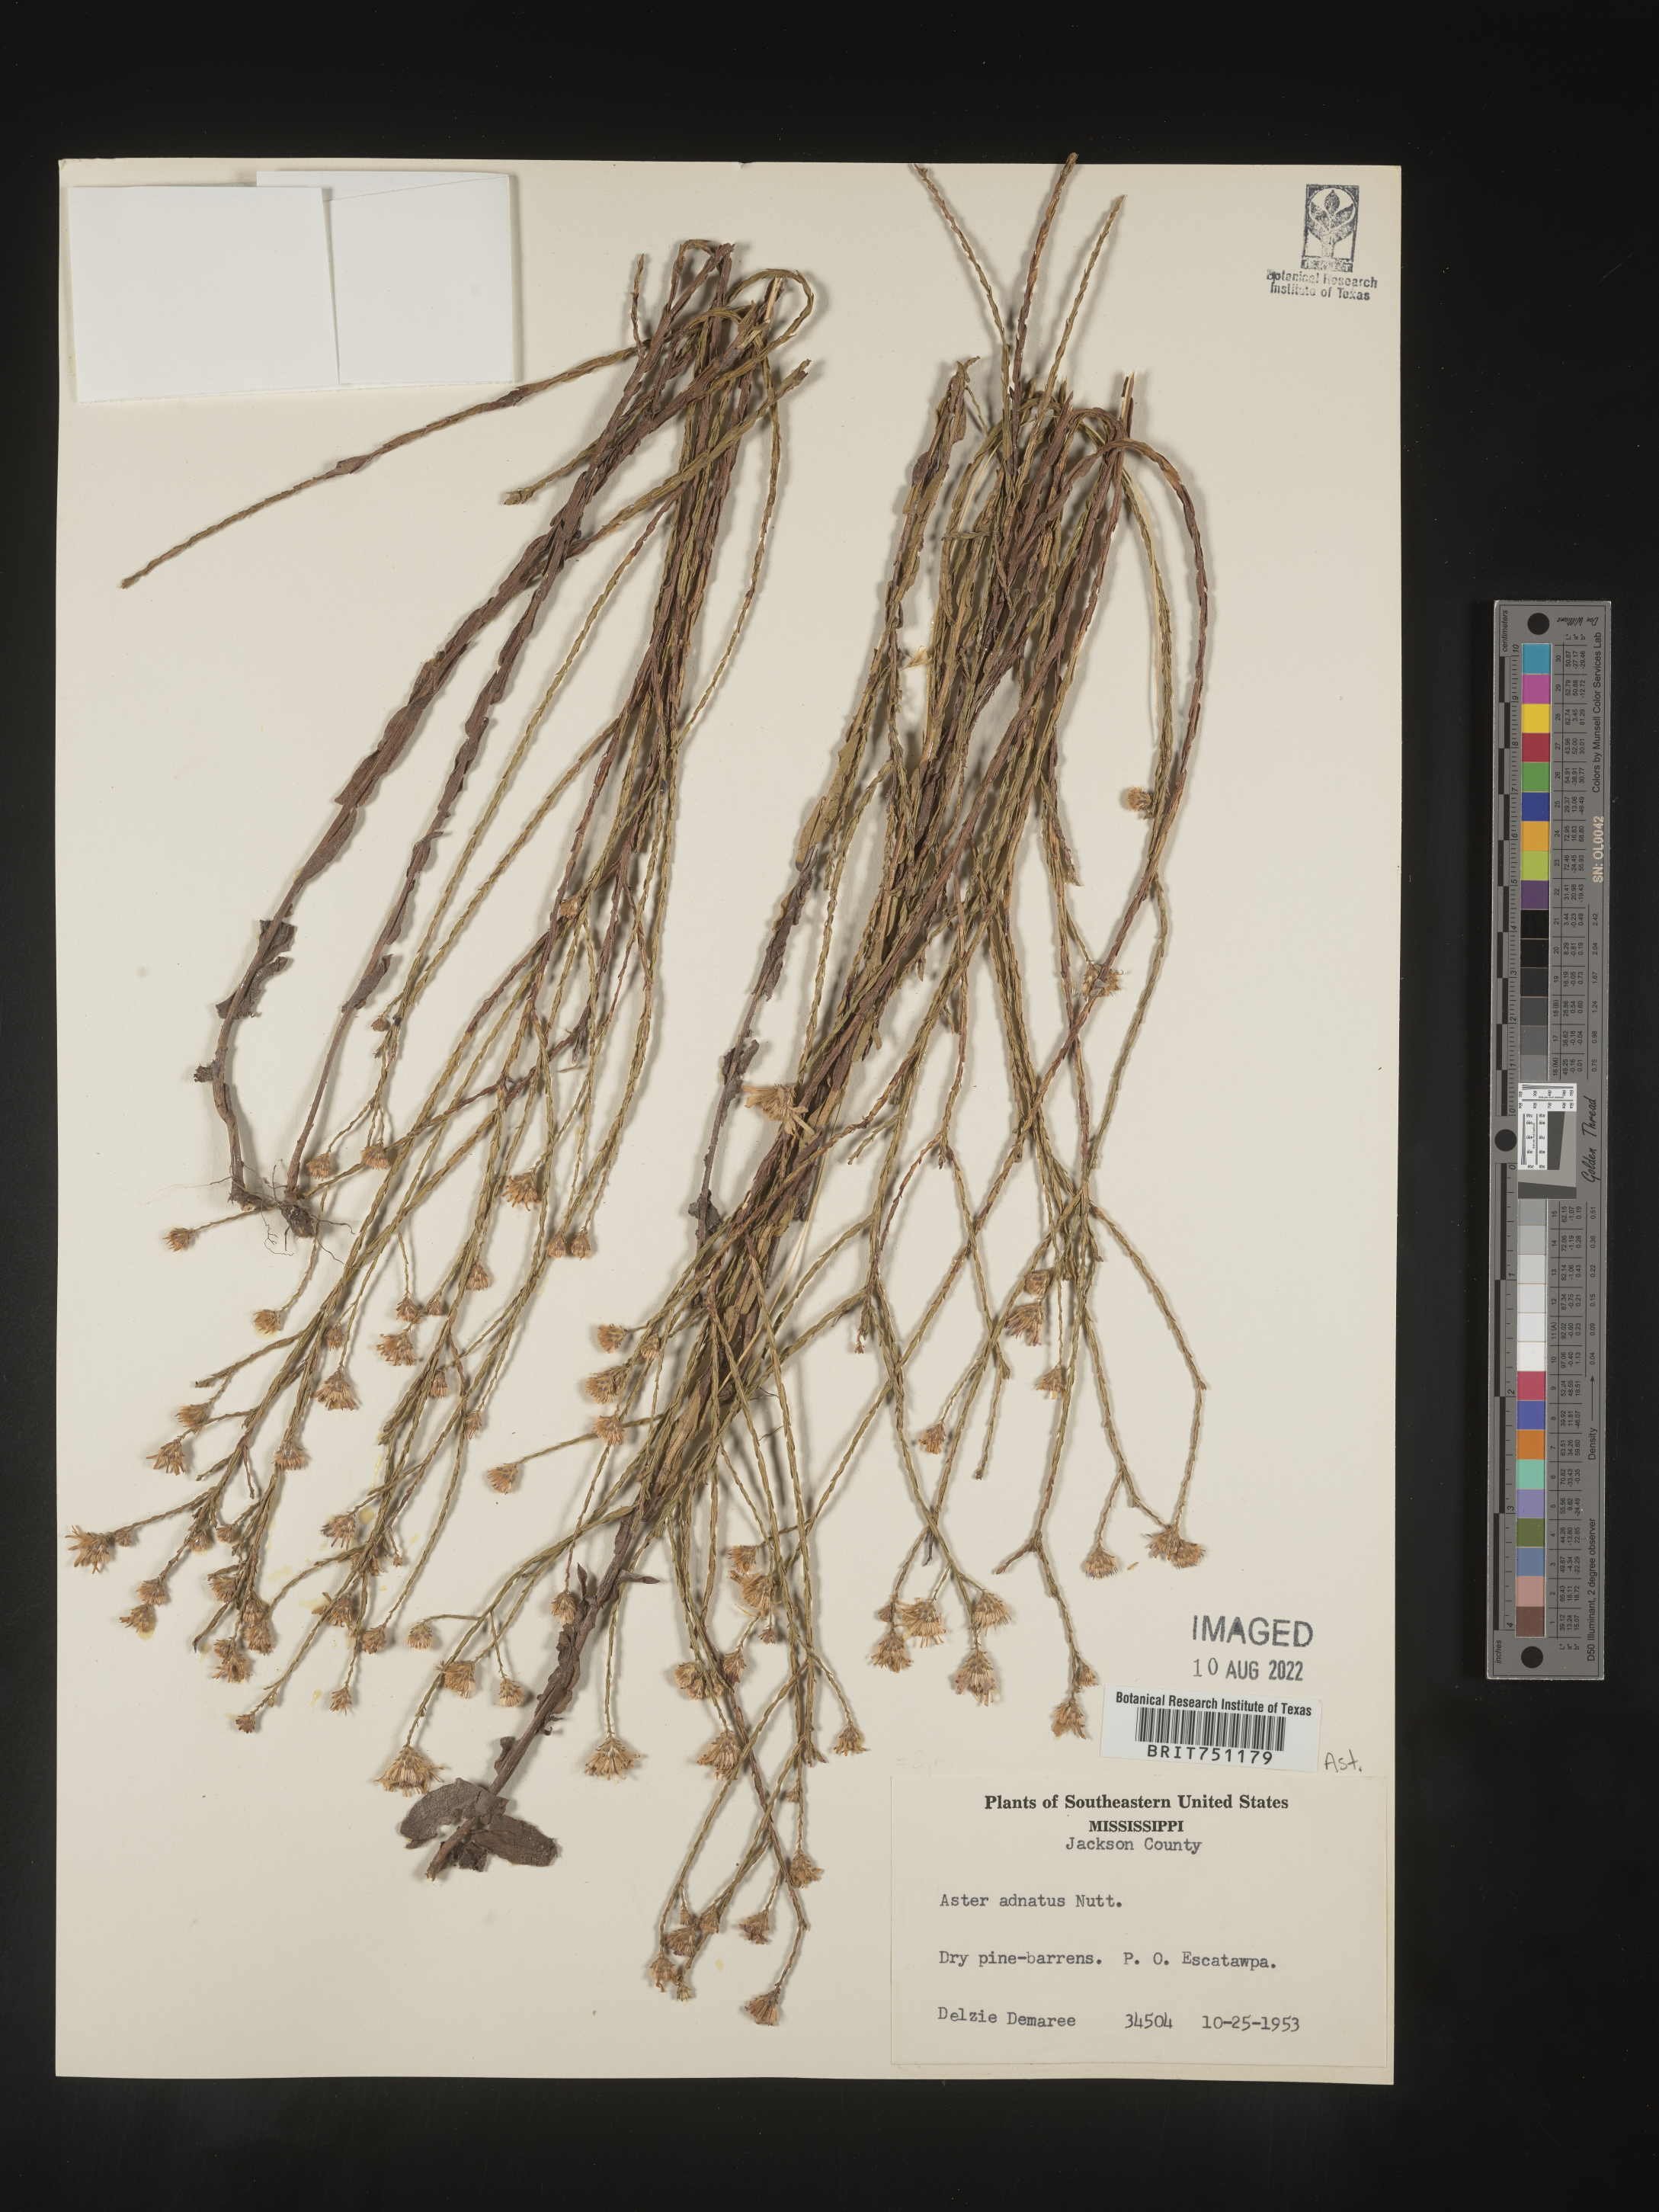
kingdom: Plantae
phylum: Tracheophyta
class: Magnoliopsida
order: Asterales
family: Asteraceae
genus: Symphyotrichum
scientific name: Symphyotrichum adnatum
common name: Scale-leaf aster
